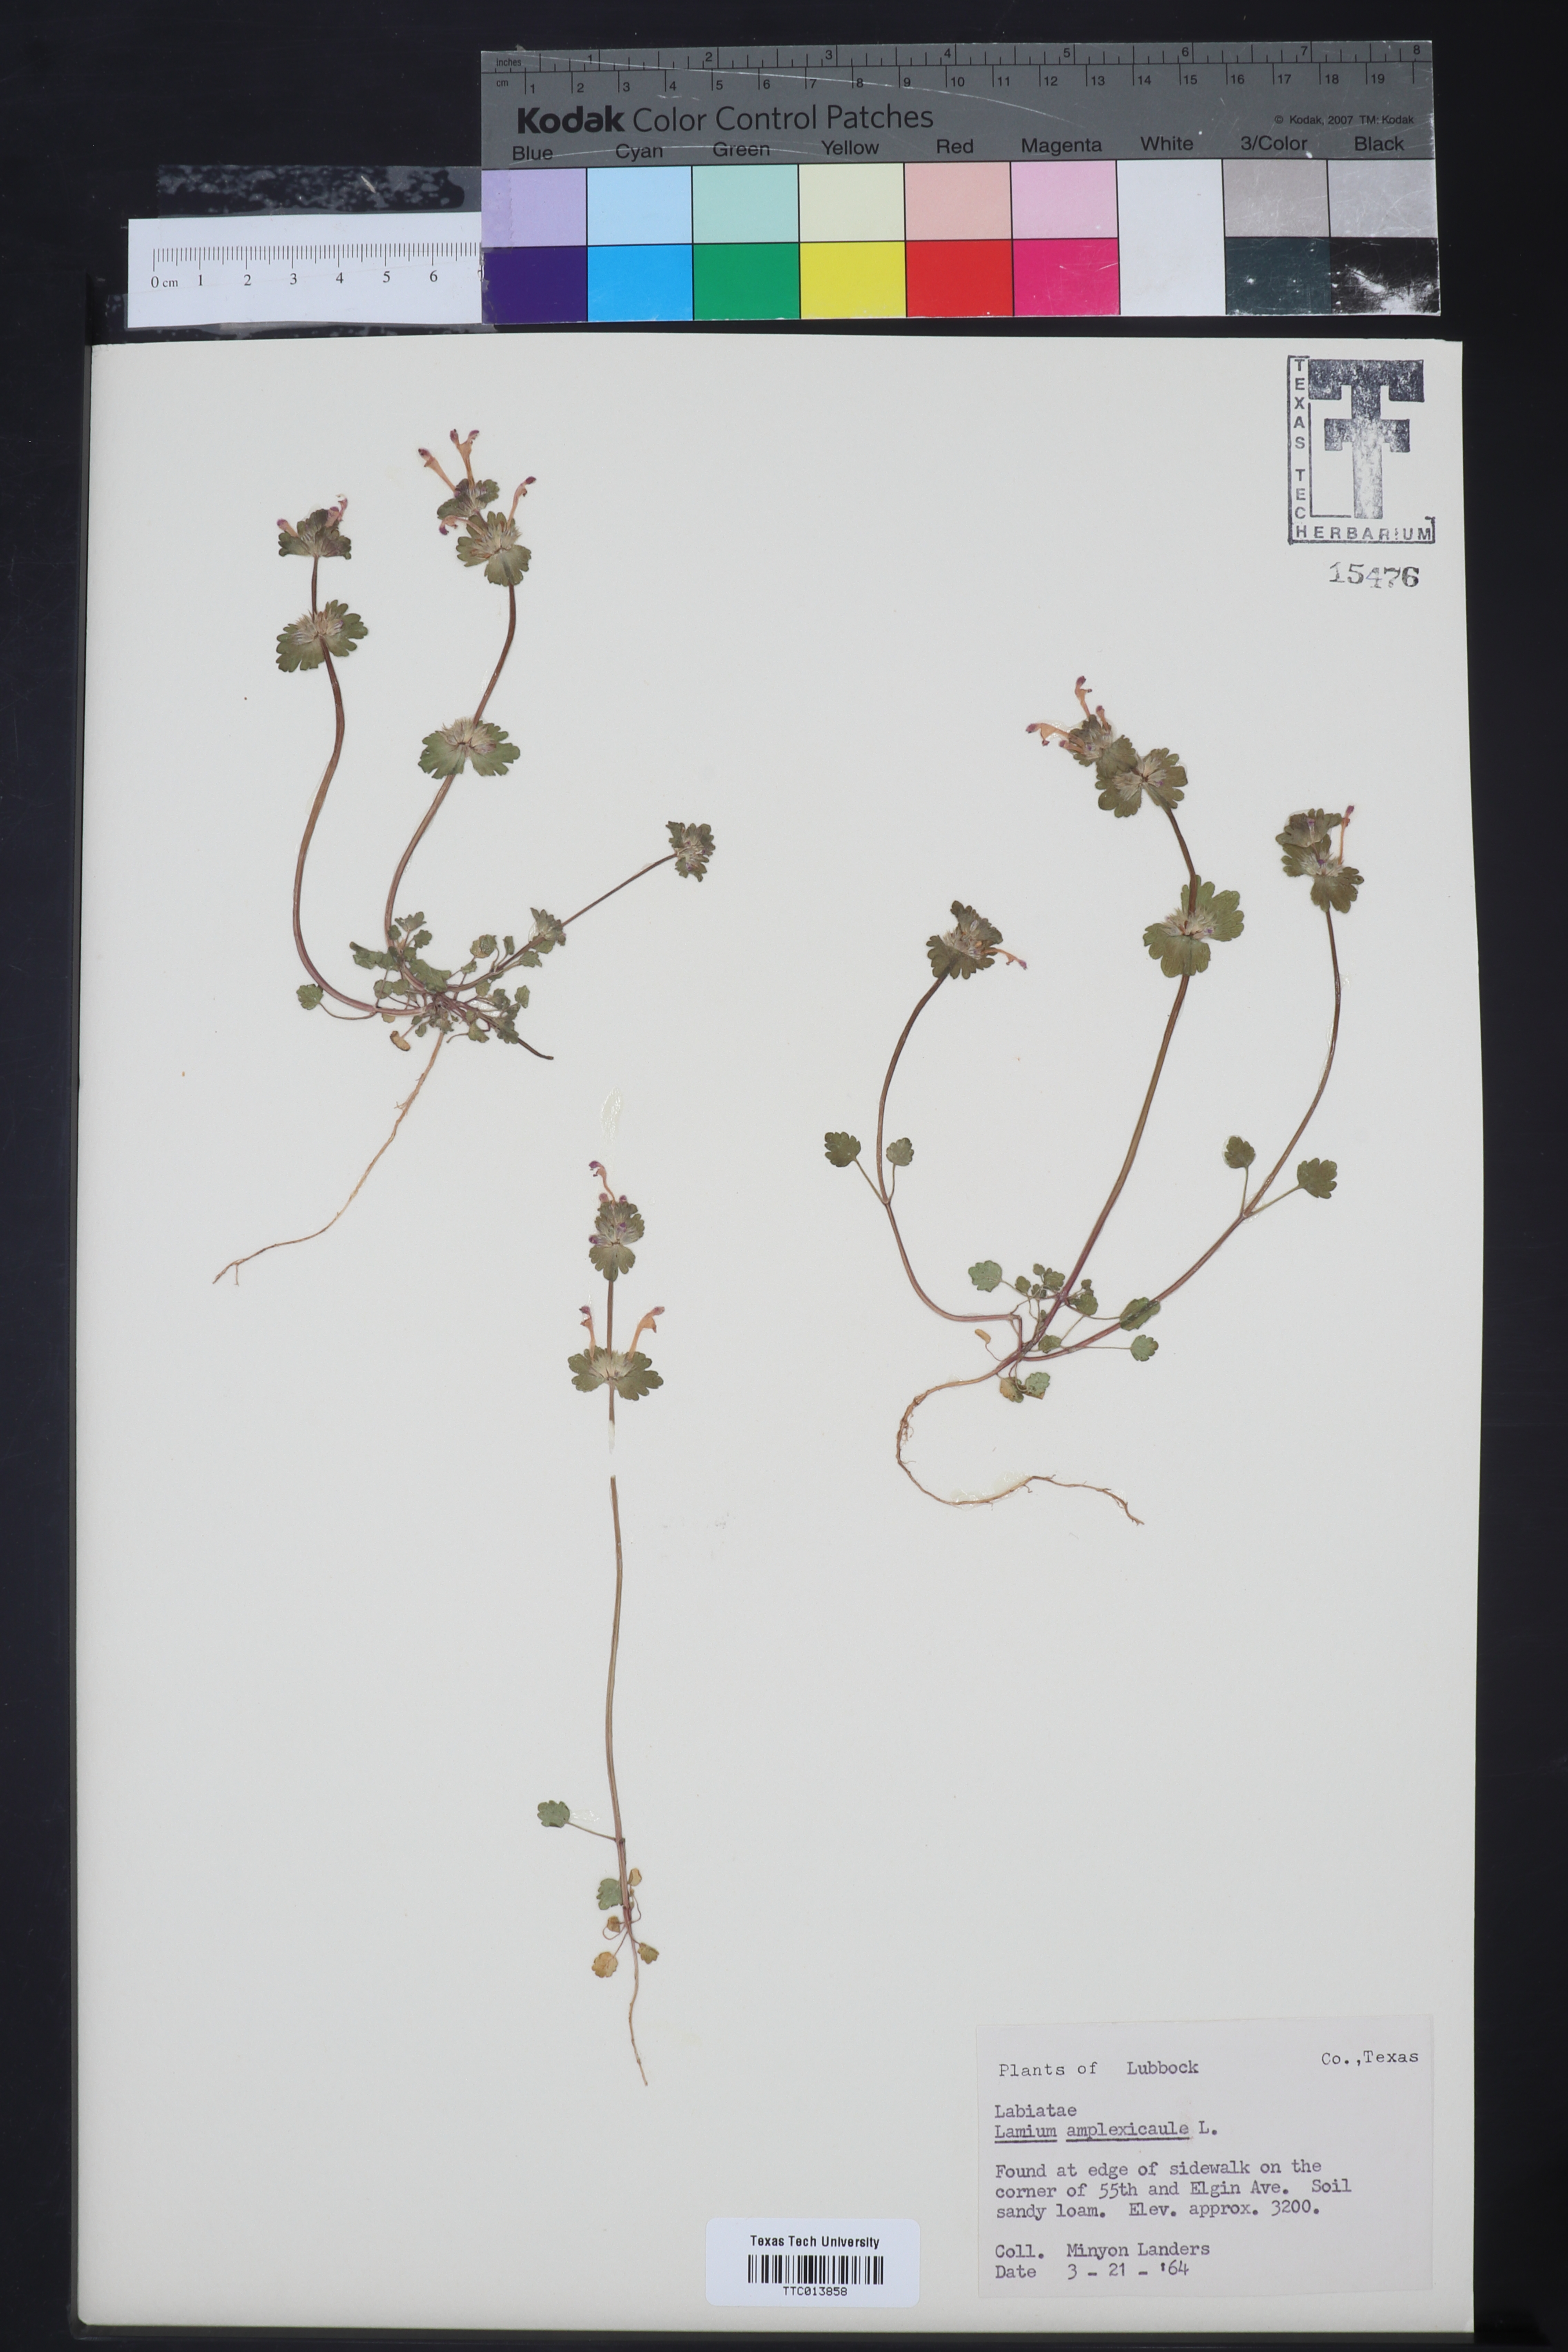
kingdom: Plantae
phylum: Tracheophyta
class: Magnoliopsida
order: Lamiales
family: Lamiaceae
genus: Lamium
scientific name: Lamium amplexicaule
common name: Henbit dead-nettle
